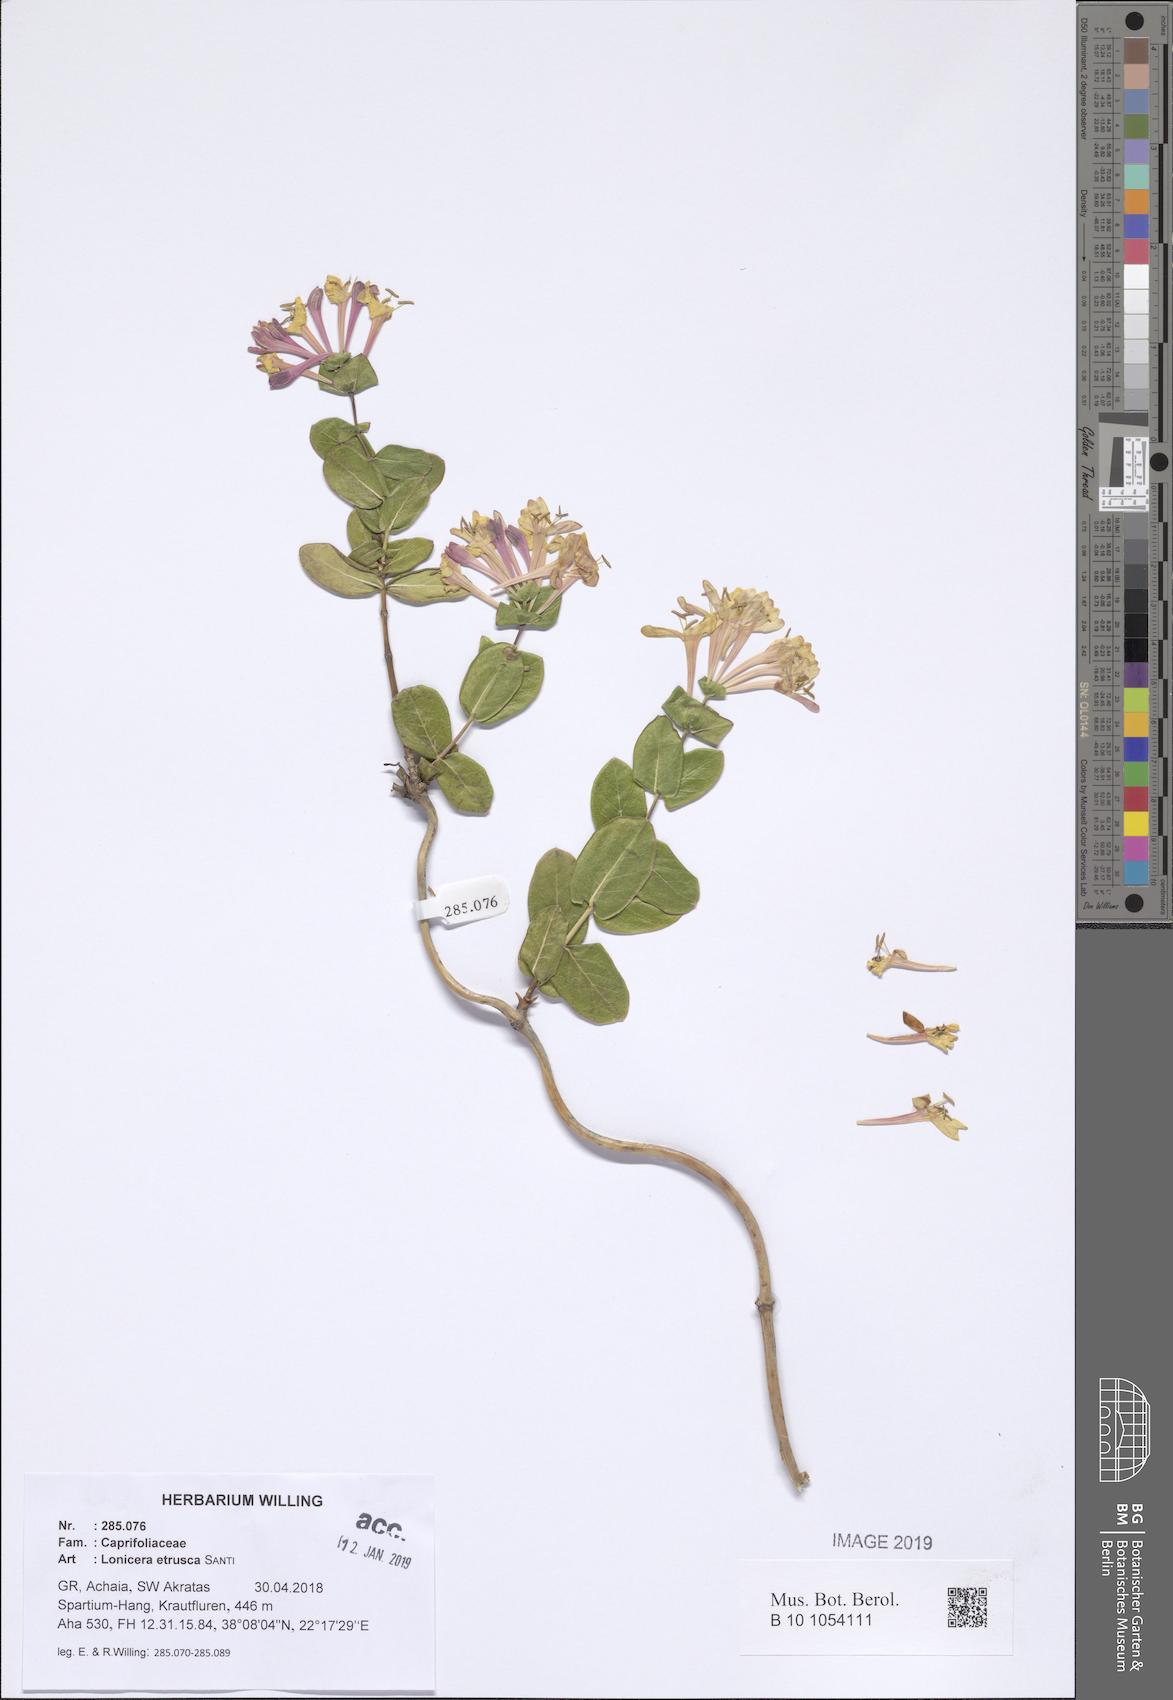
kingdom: Plantae
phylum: Tracheophyta
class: Magnoliopsida
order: Dipsacales
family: Caprifoliaceae
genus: Lonicera
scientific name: Lonicera implexa
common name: Minorca honeysuckle
